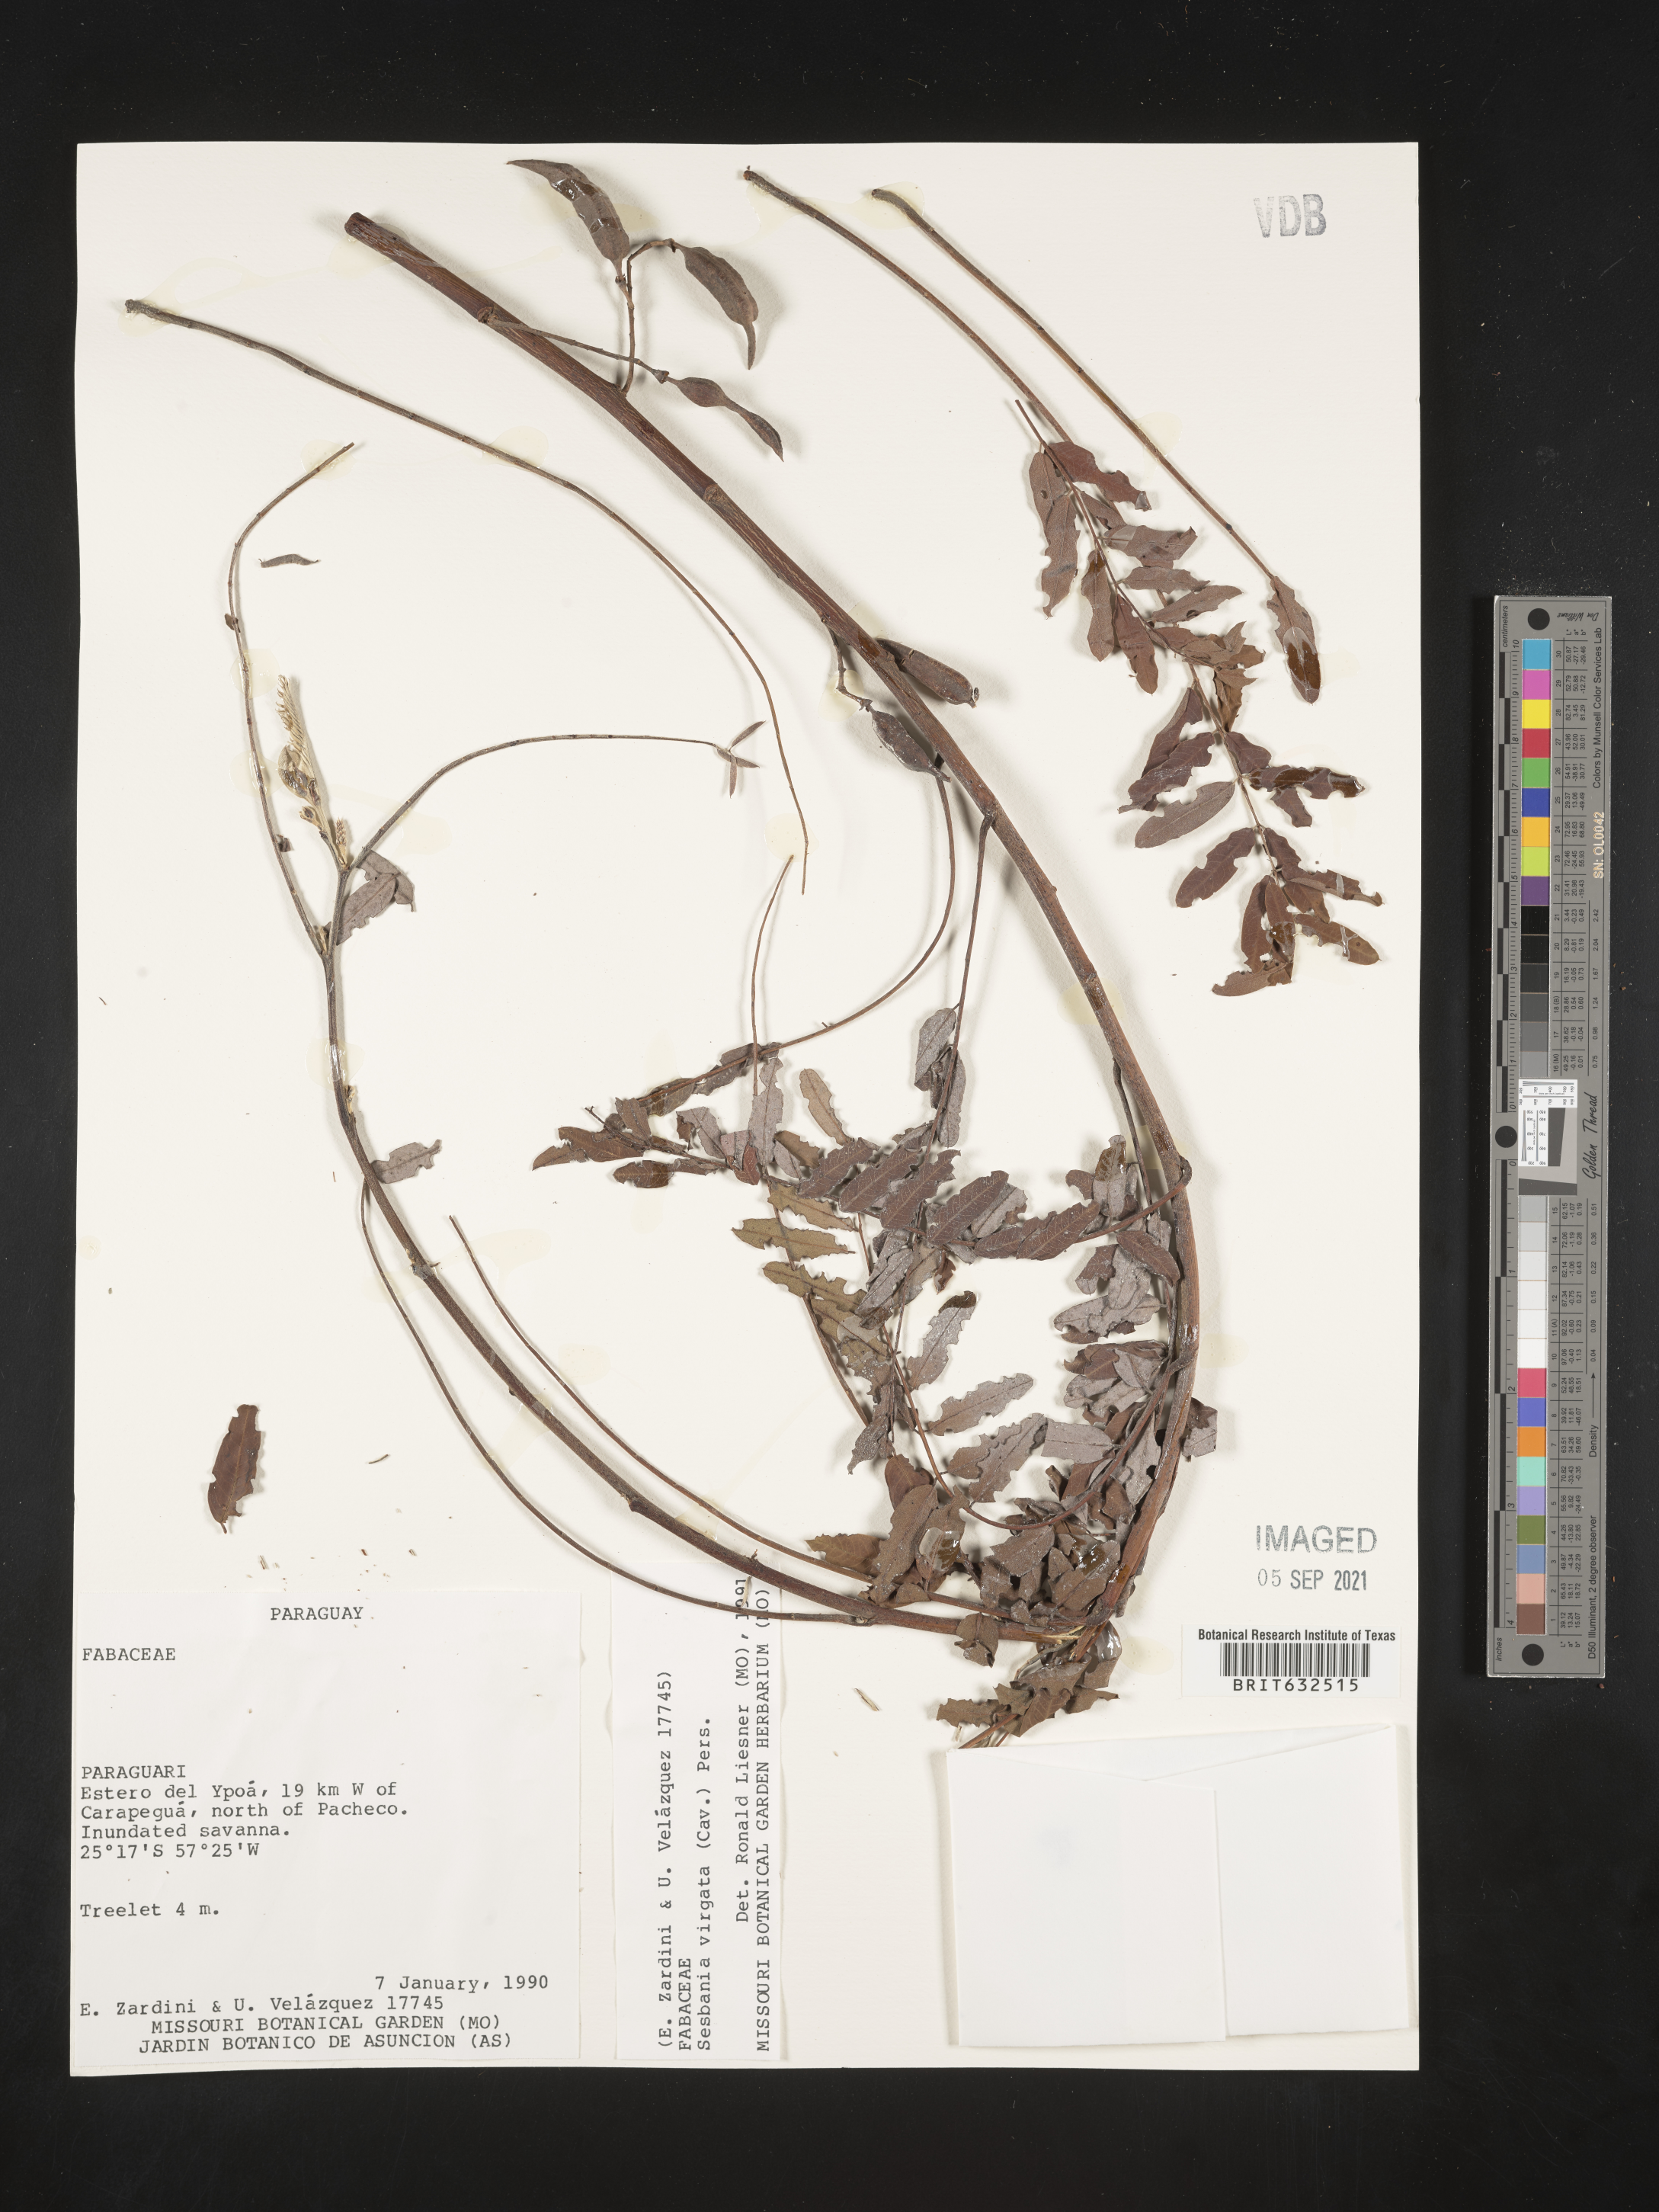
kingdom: Plantae
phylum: Tracheophyta
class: Magnoliopsida
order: Fabales
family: Fabaceae
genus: Sesbania
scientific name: Sesbania
